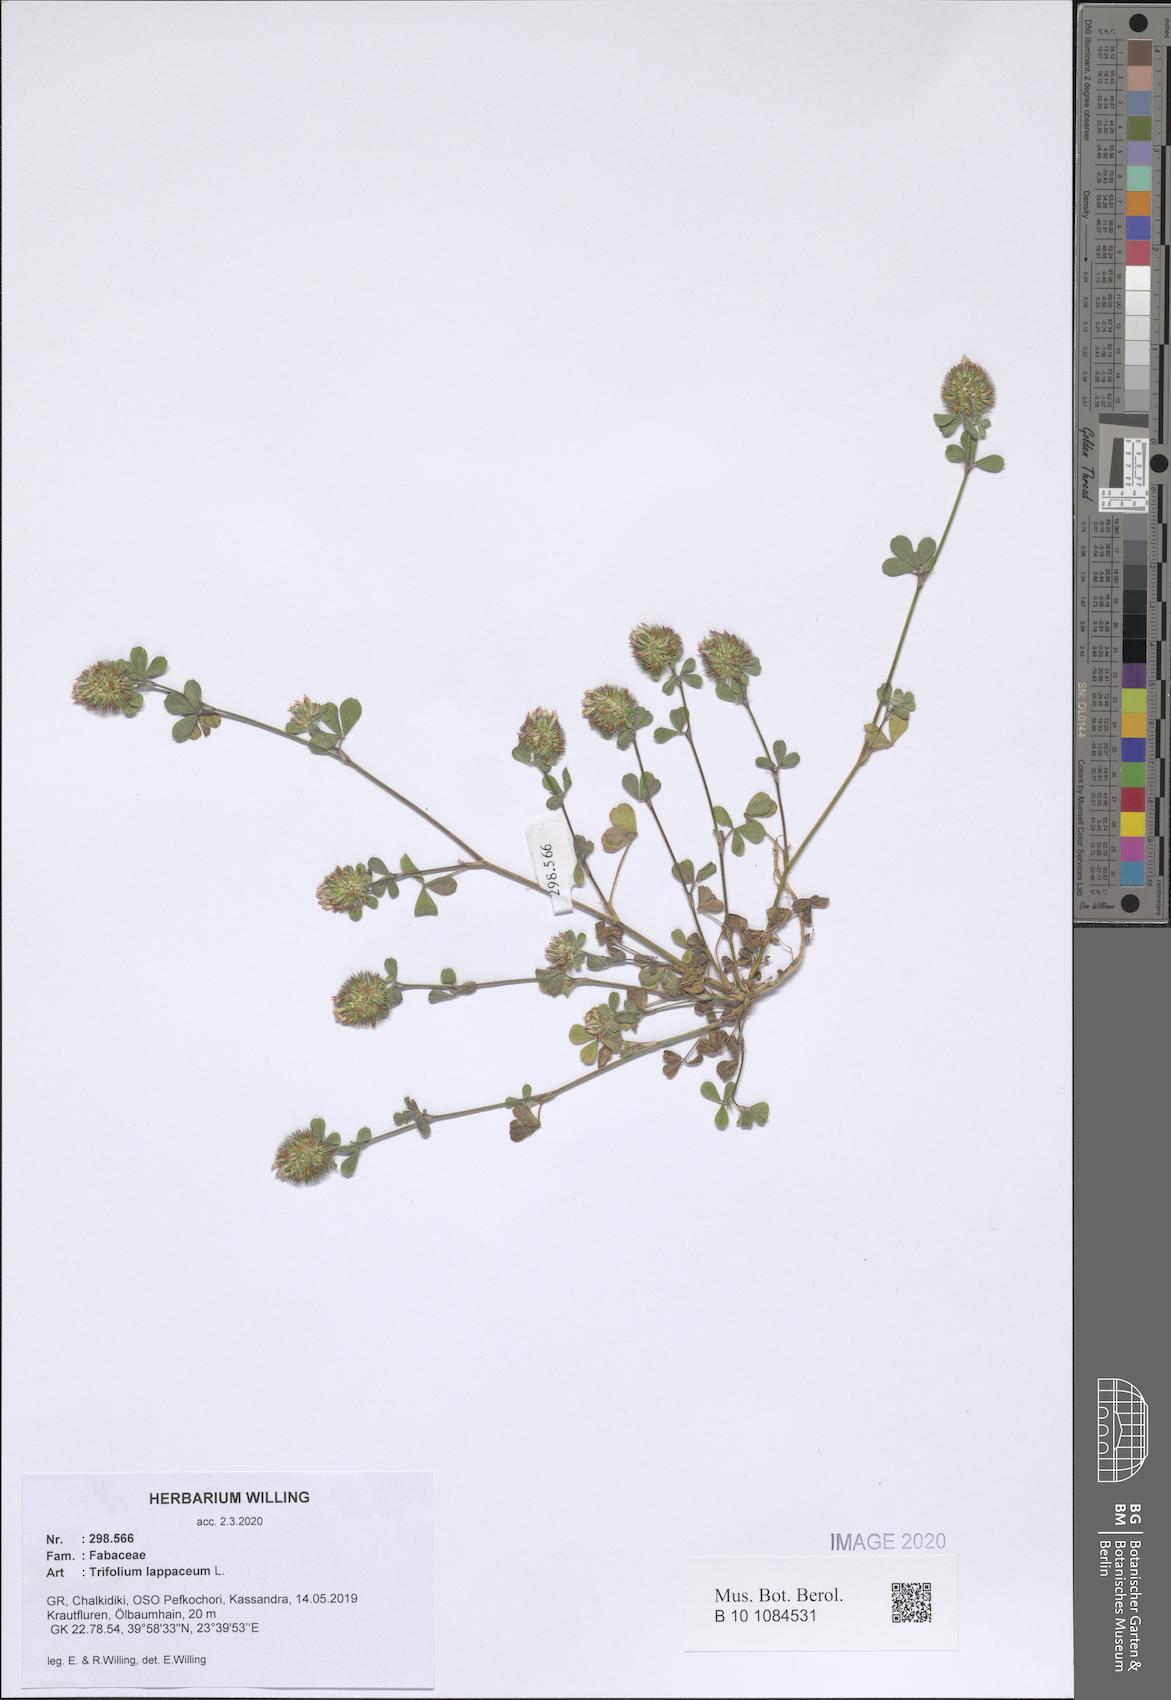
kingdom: Plantae
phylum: Tracheophyta
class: Magnoliopsida
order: Fabales
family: Fabaceae
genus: Trifolium
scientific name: Trifolium lappaceum
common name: Bur clover
